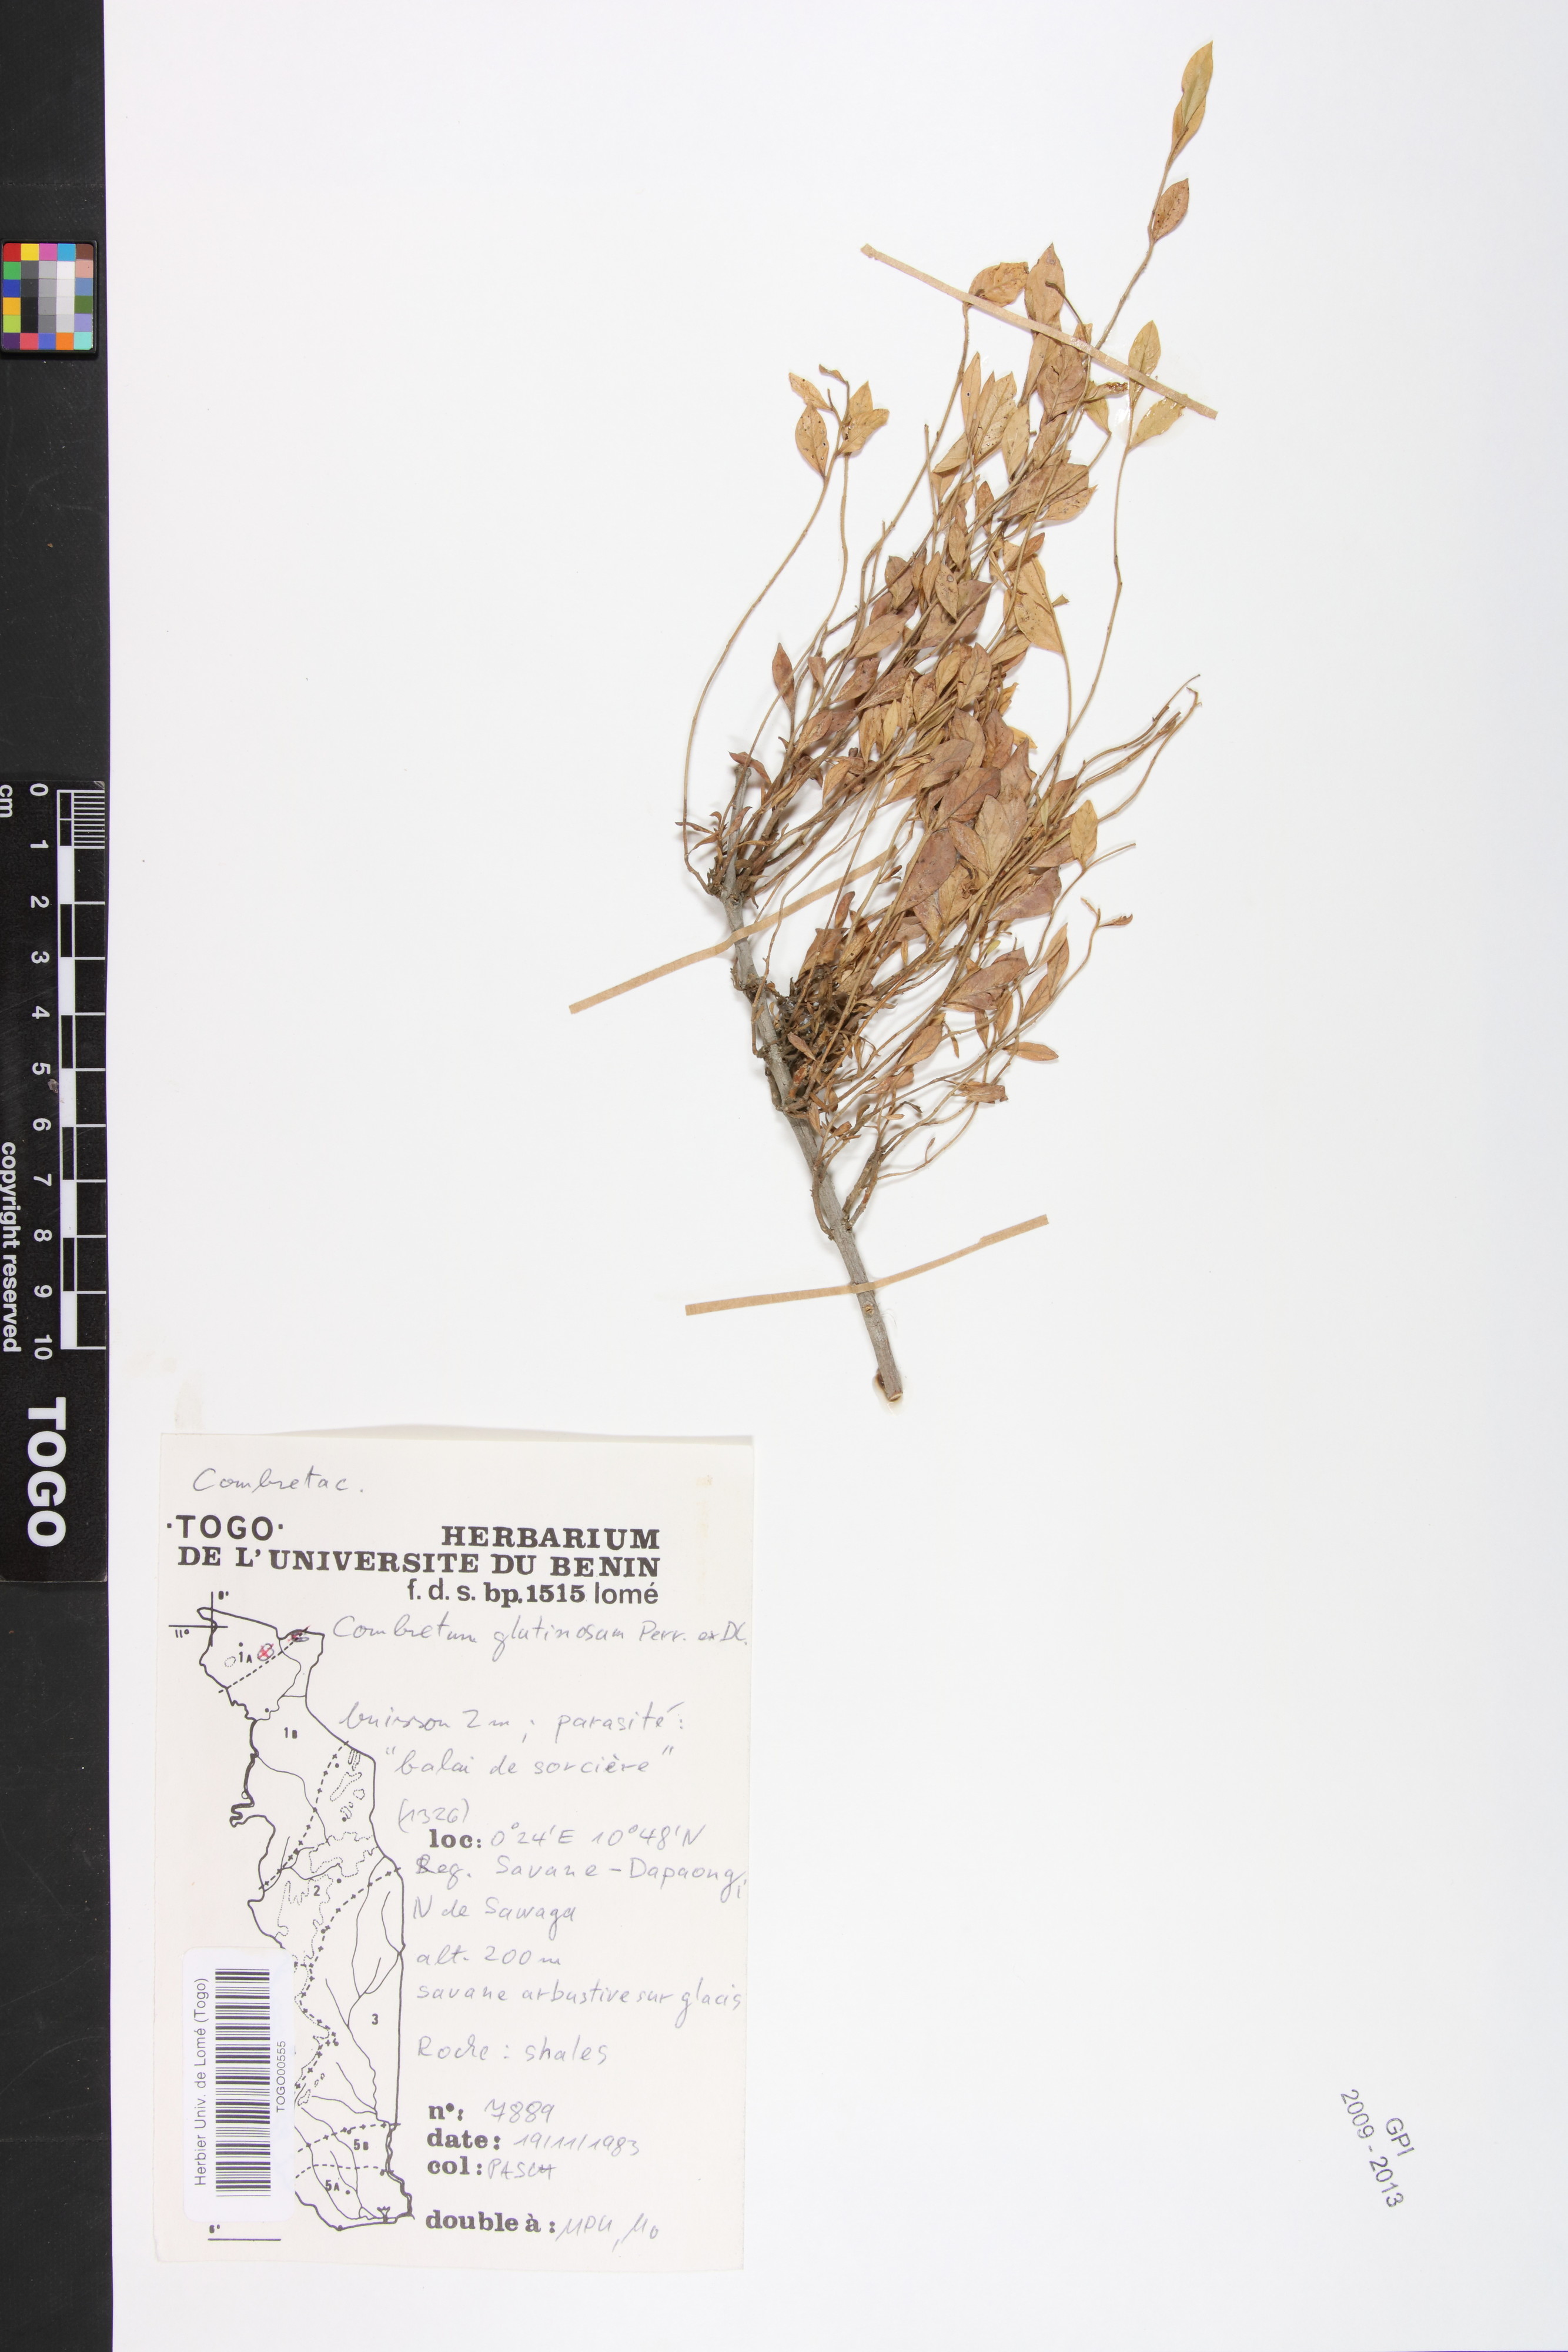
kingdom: Plantae
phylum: Tracheophyta
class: Magnoliopsida
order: Myrtales
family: Combretaceae
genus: Combretum
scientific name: Combretum glutinosum
